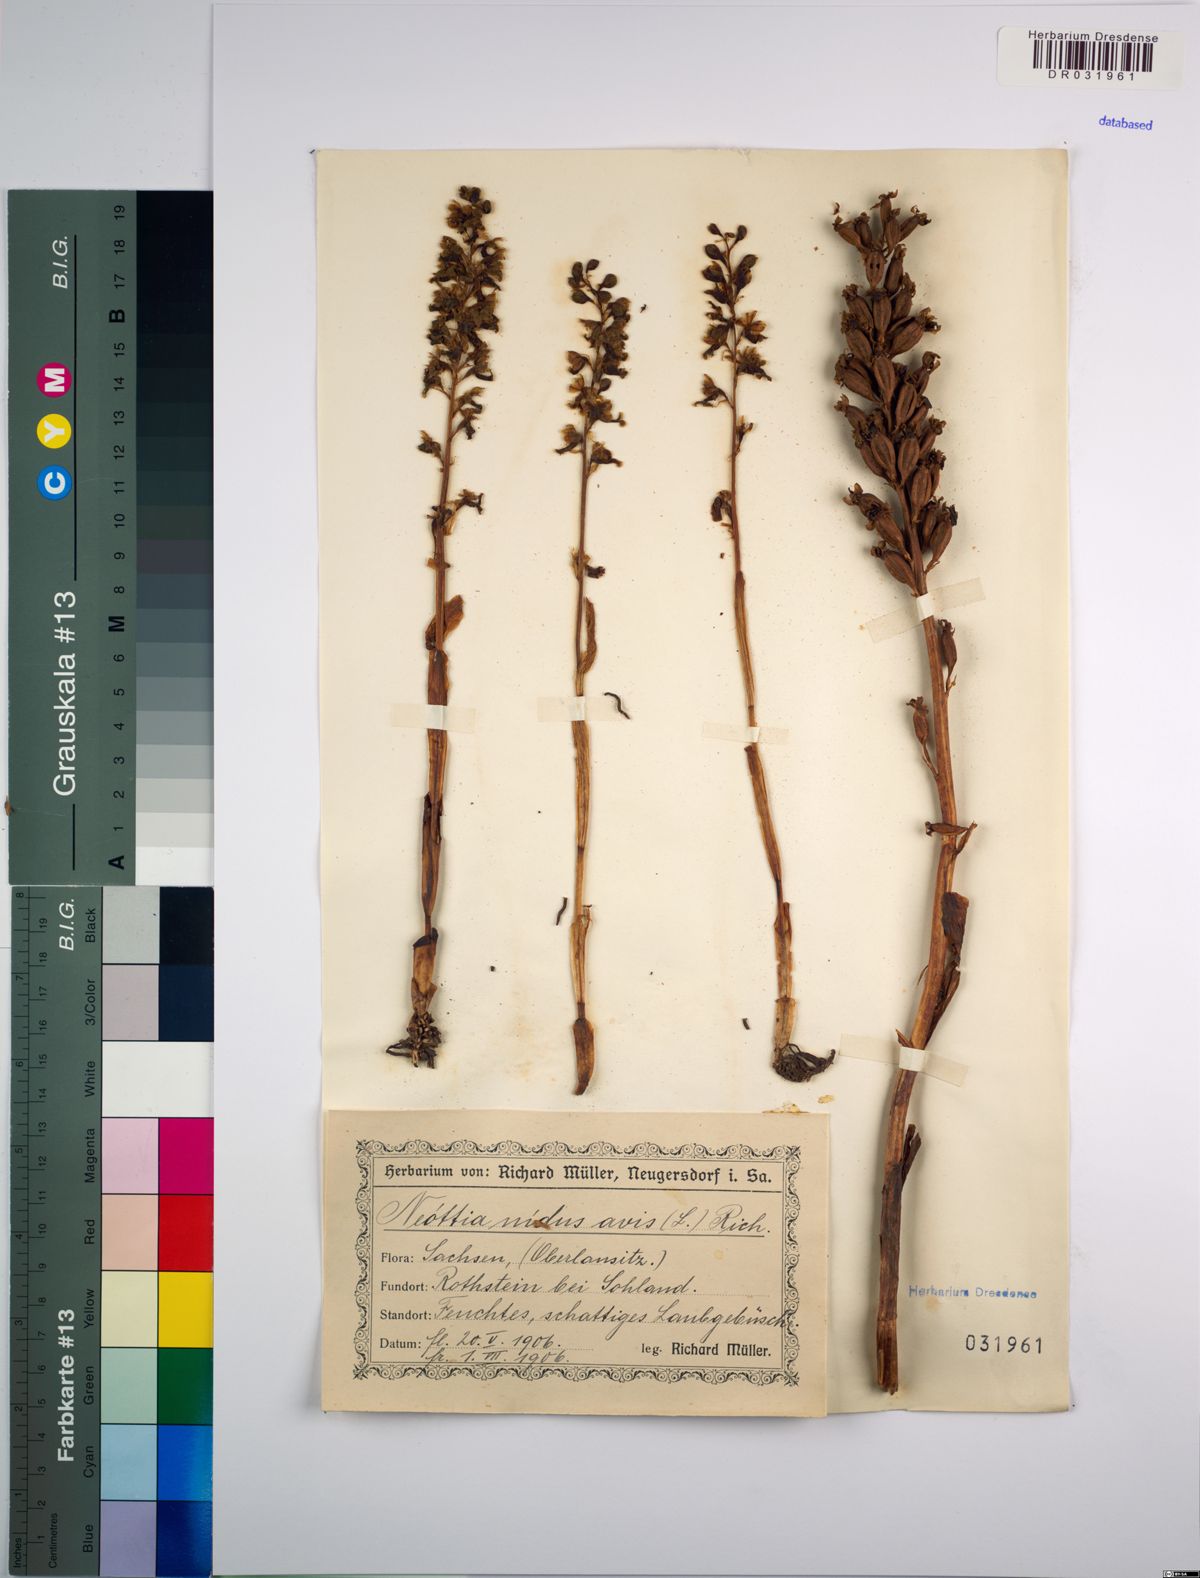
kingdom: Plantae
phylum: Tracheophyta
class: Liliopsida
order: Asparagales
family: Orchidaceae
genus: Neottia
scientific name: Neottia nidus-avis
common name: Bird's-nest orchid
